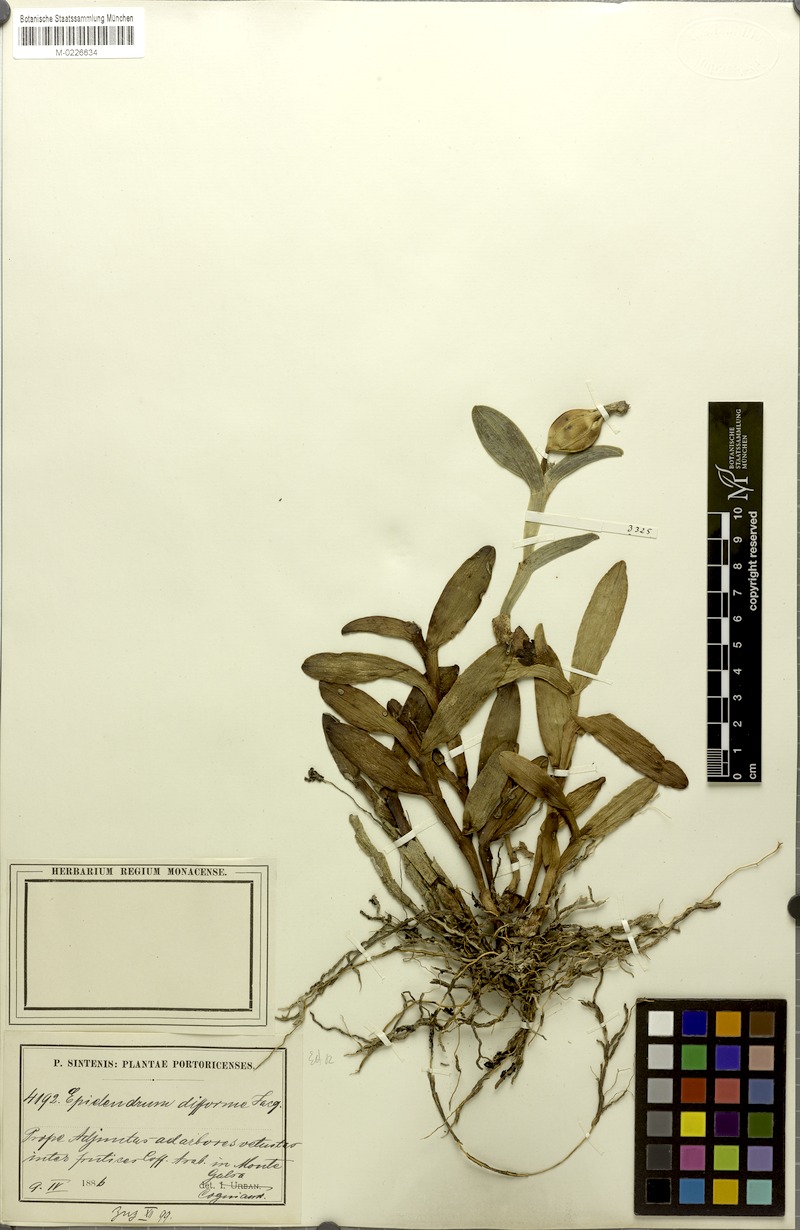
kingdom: Plantae
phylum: Tracheophyta
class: Liliopsida
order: Asparagales
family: Orchidaceae
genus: Epidendrum
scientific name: Epidendrum boricuarum
